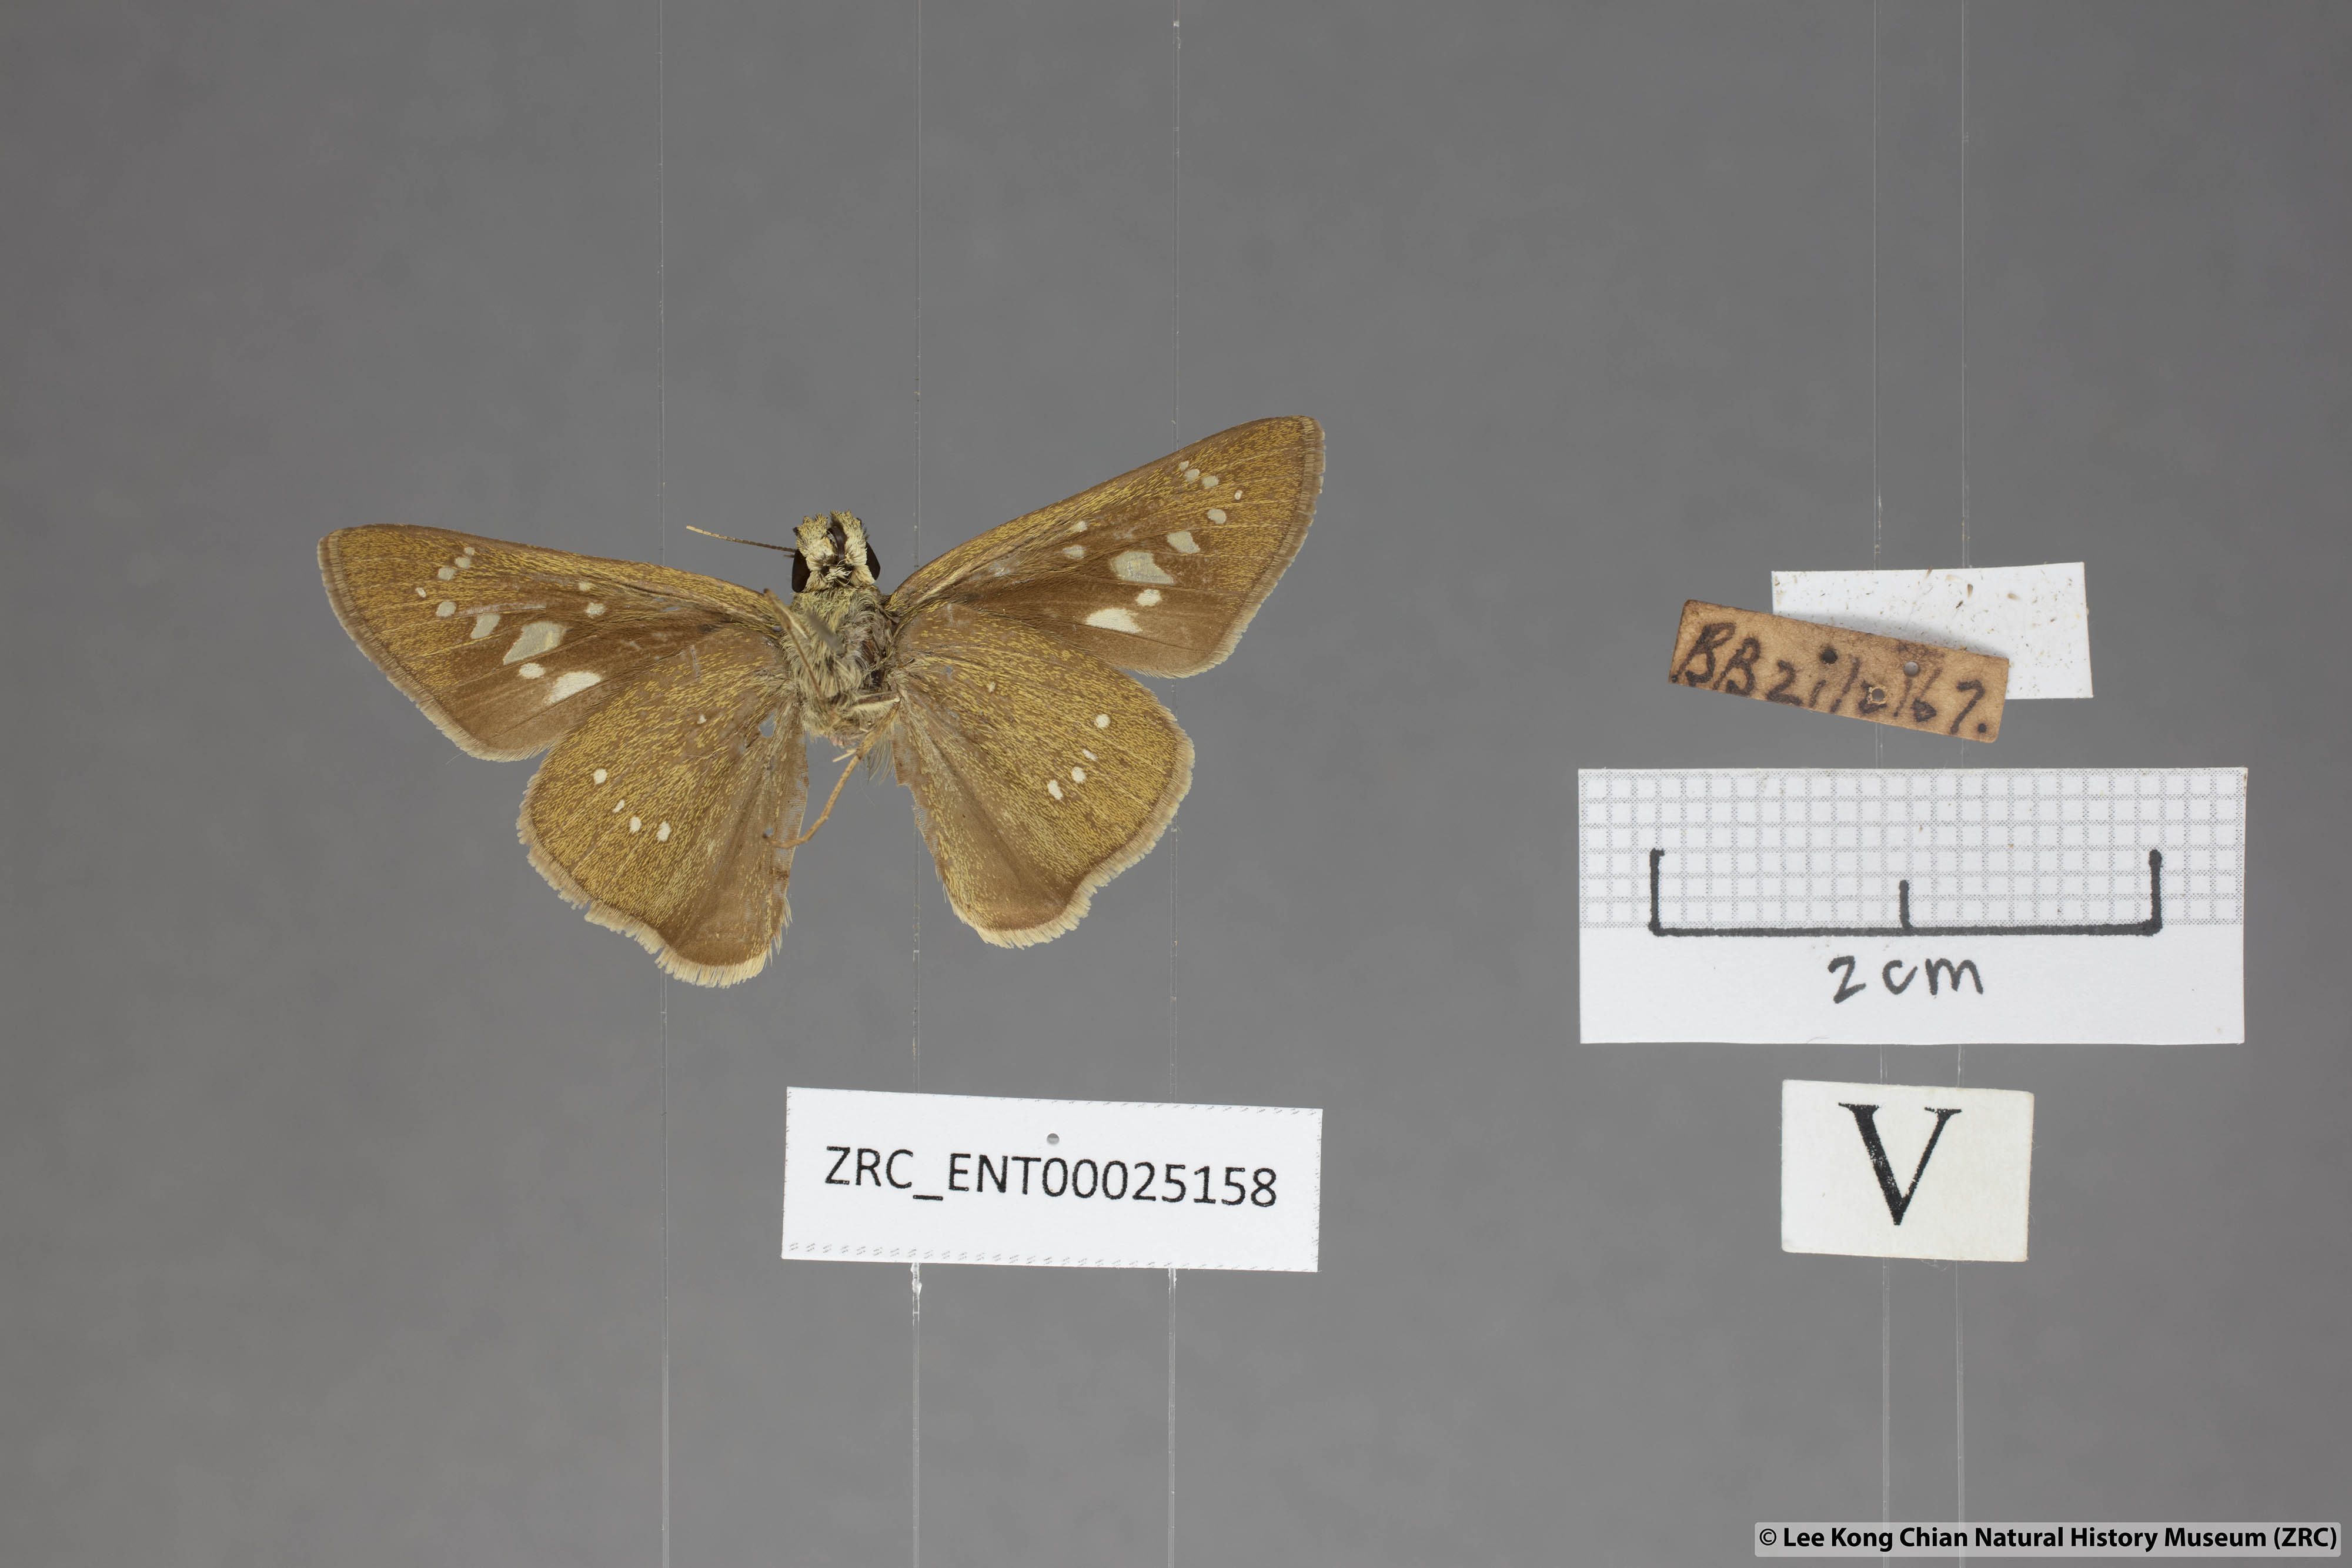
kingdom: Animalia
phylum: Arthropoda
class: Insecta
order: Lepidoptera
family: Hesperiidae
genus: Pelopidas
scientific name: Pelopidas mathias
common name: Black-branded swift
